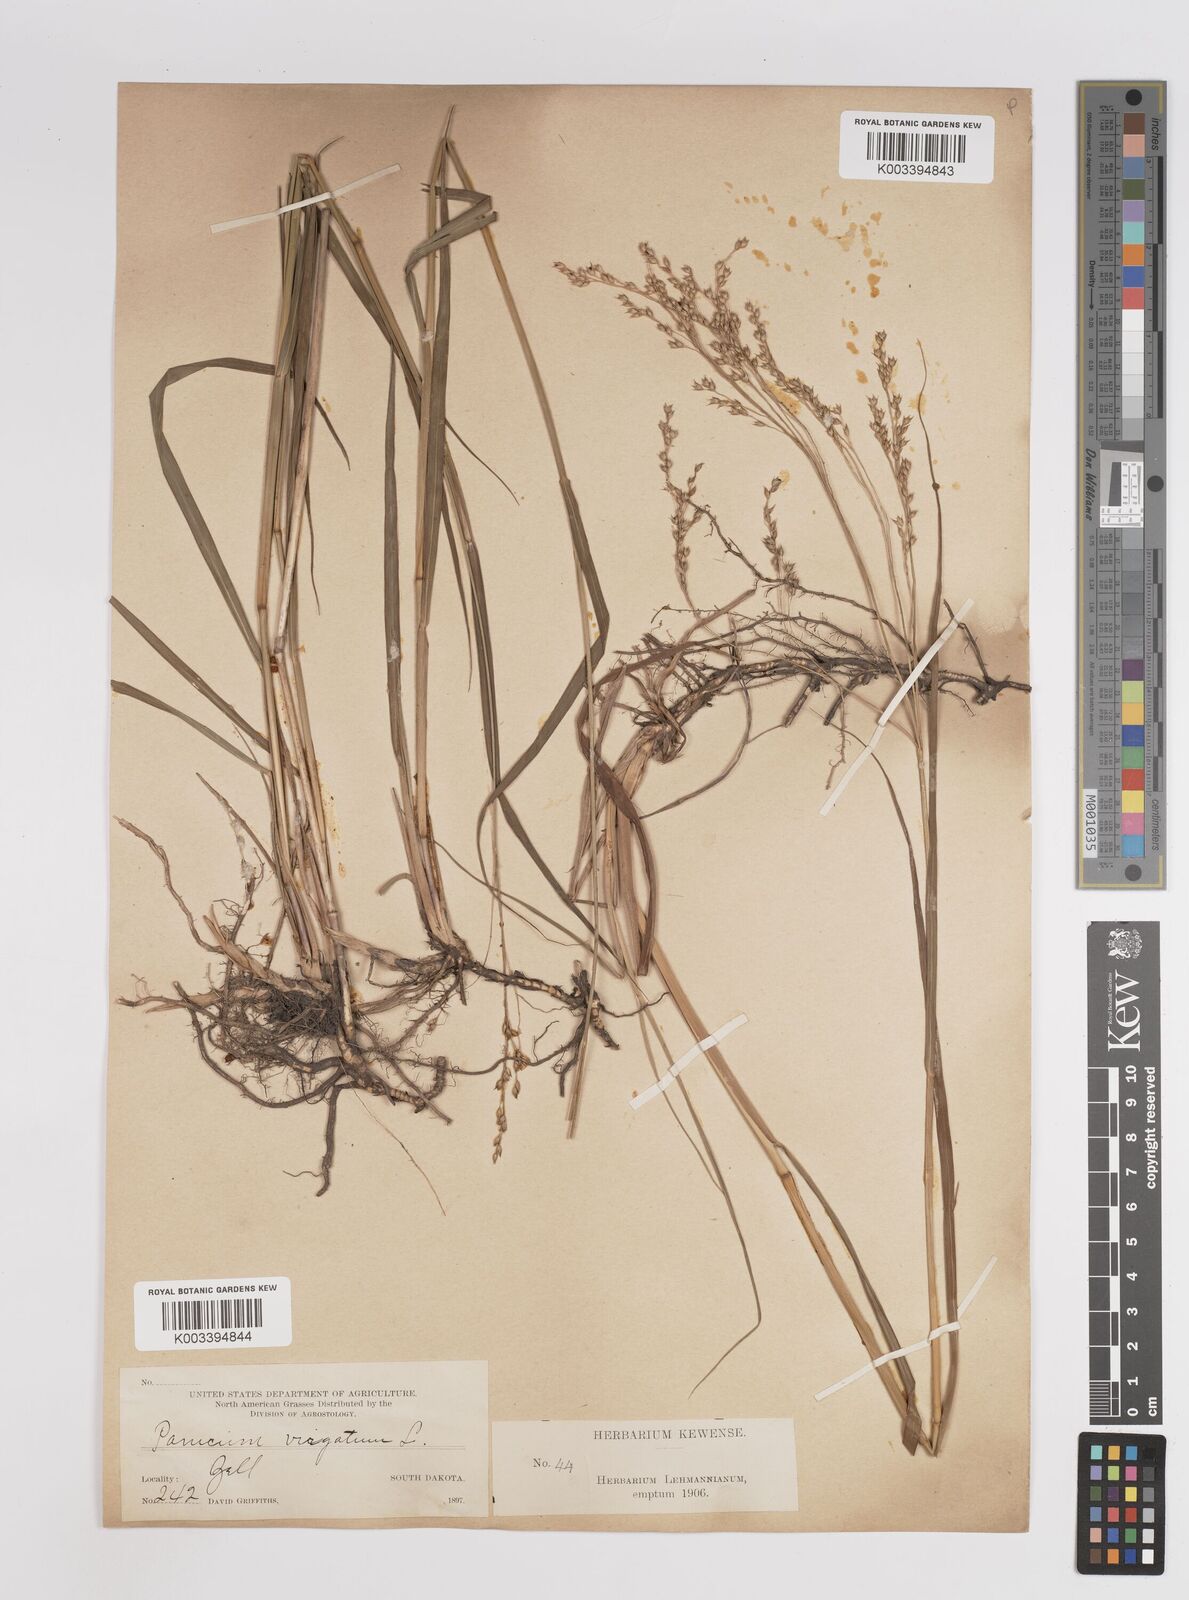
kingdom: Plantae
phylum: Tracheophyta
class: Liliopsida
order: Poales
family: Poaceae
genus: Panicum
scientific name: Panicum virgatum
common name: Switchgrass
